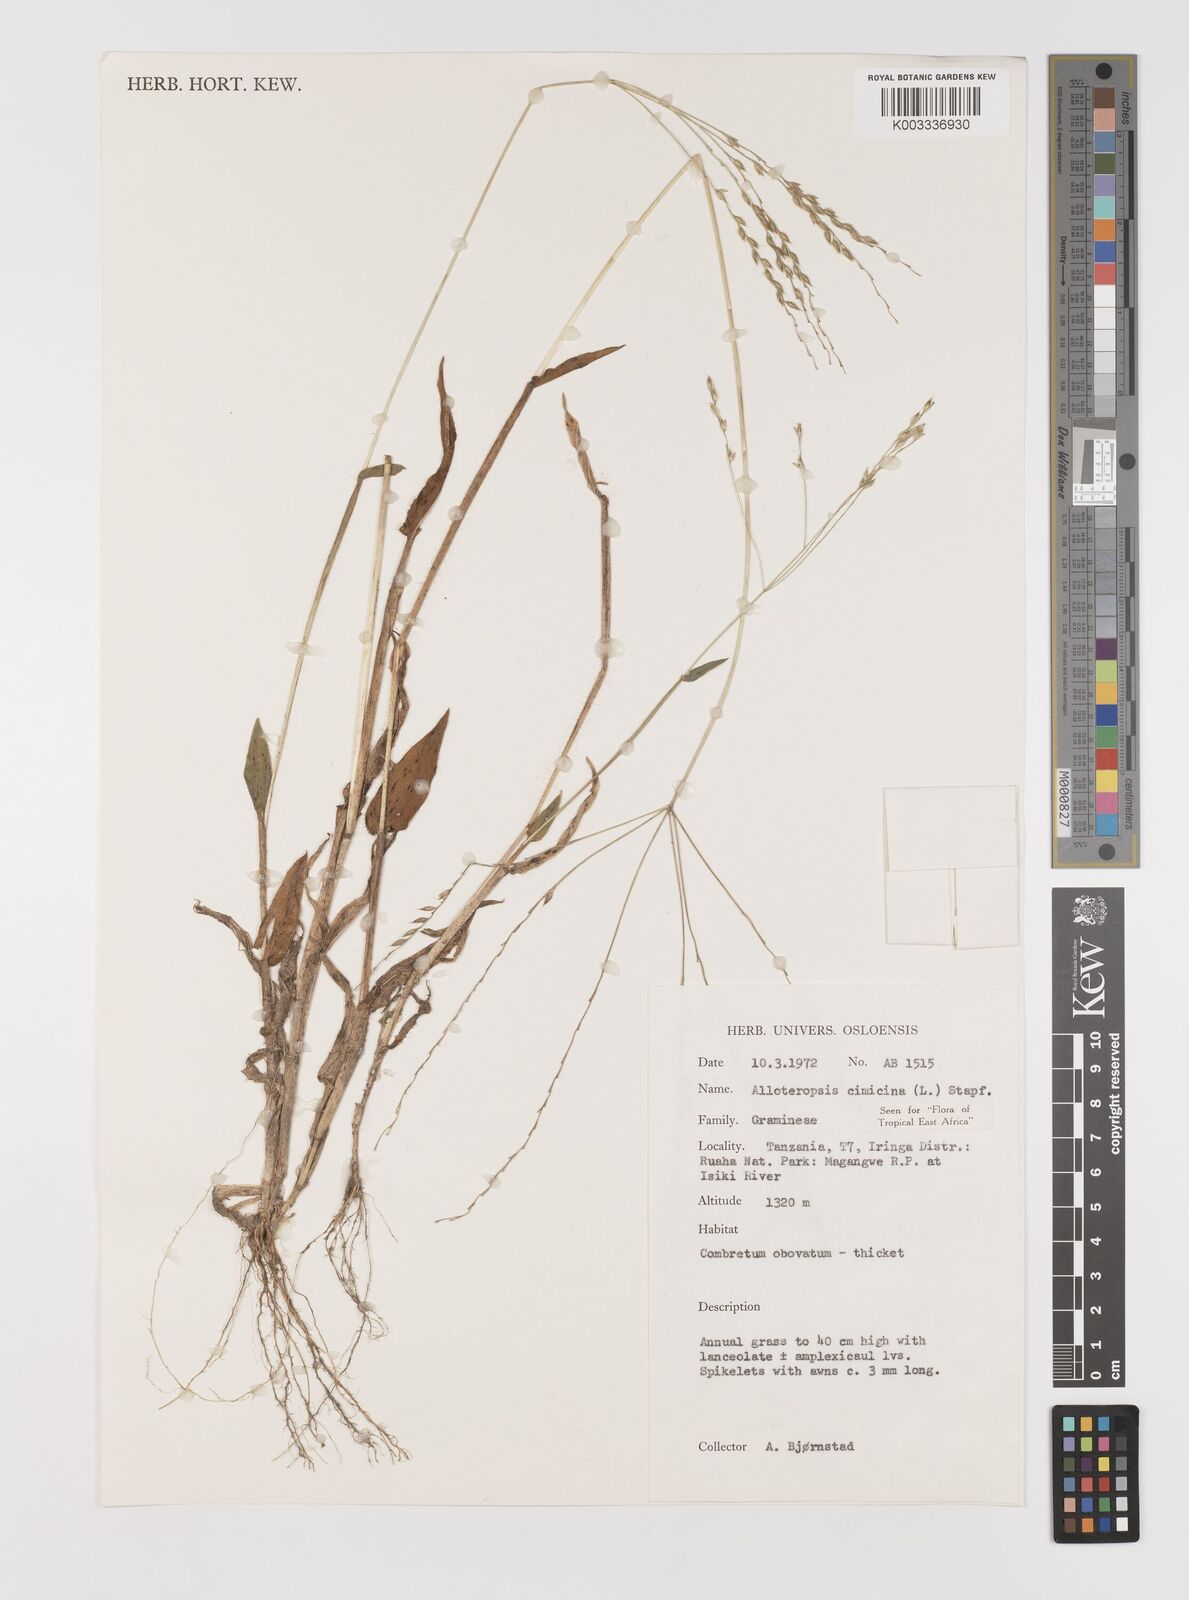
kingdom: Plantae
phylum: Tracheophyta
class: Liliopsida
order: Poales
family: Poaceae
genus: Alloteropsis
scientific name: Alloteropsis cimicina
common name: Summergrass
